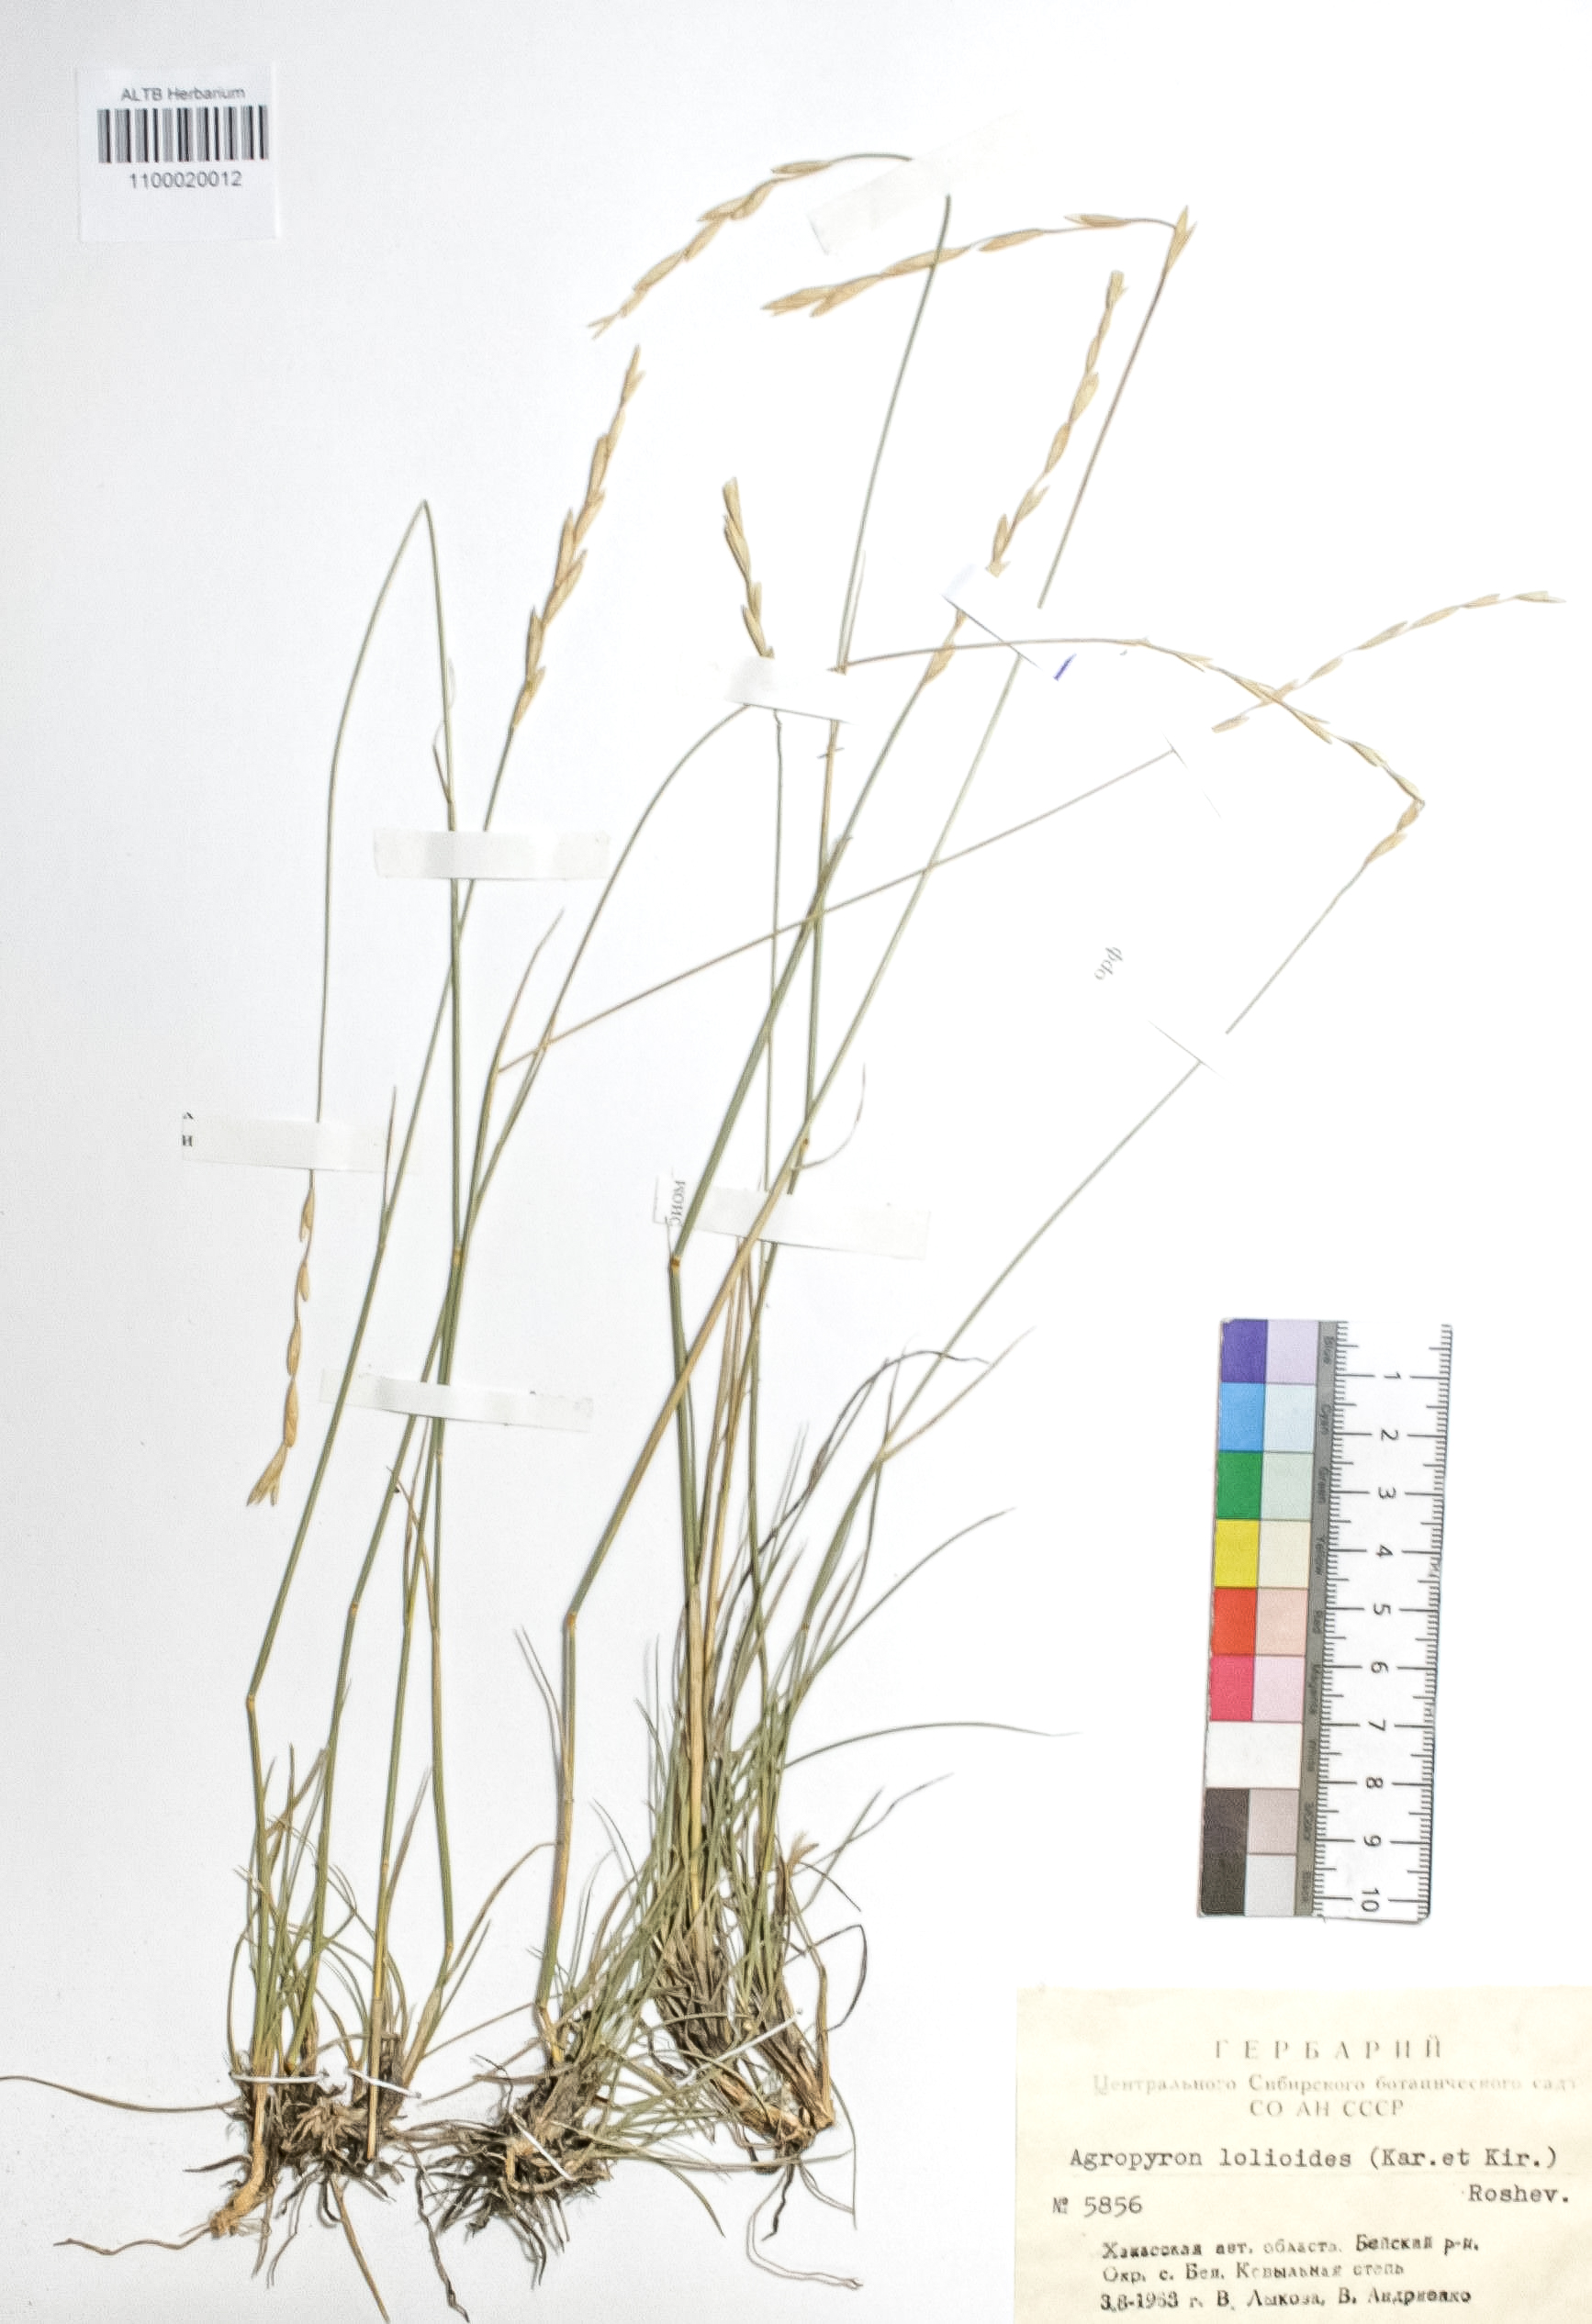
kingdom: Plantae
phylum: Tracheophyta
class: Liliopsida
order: Poales
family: Poaceae
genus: Agropyron
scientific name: Agropyron lolioides
